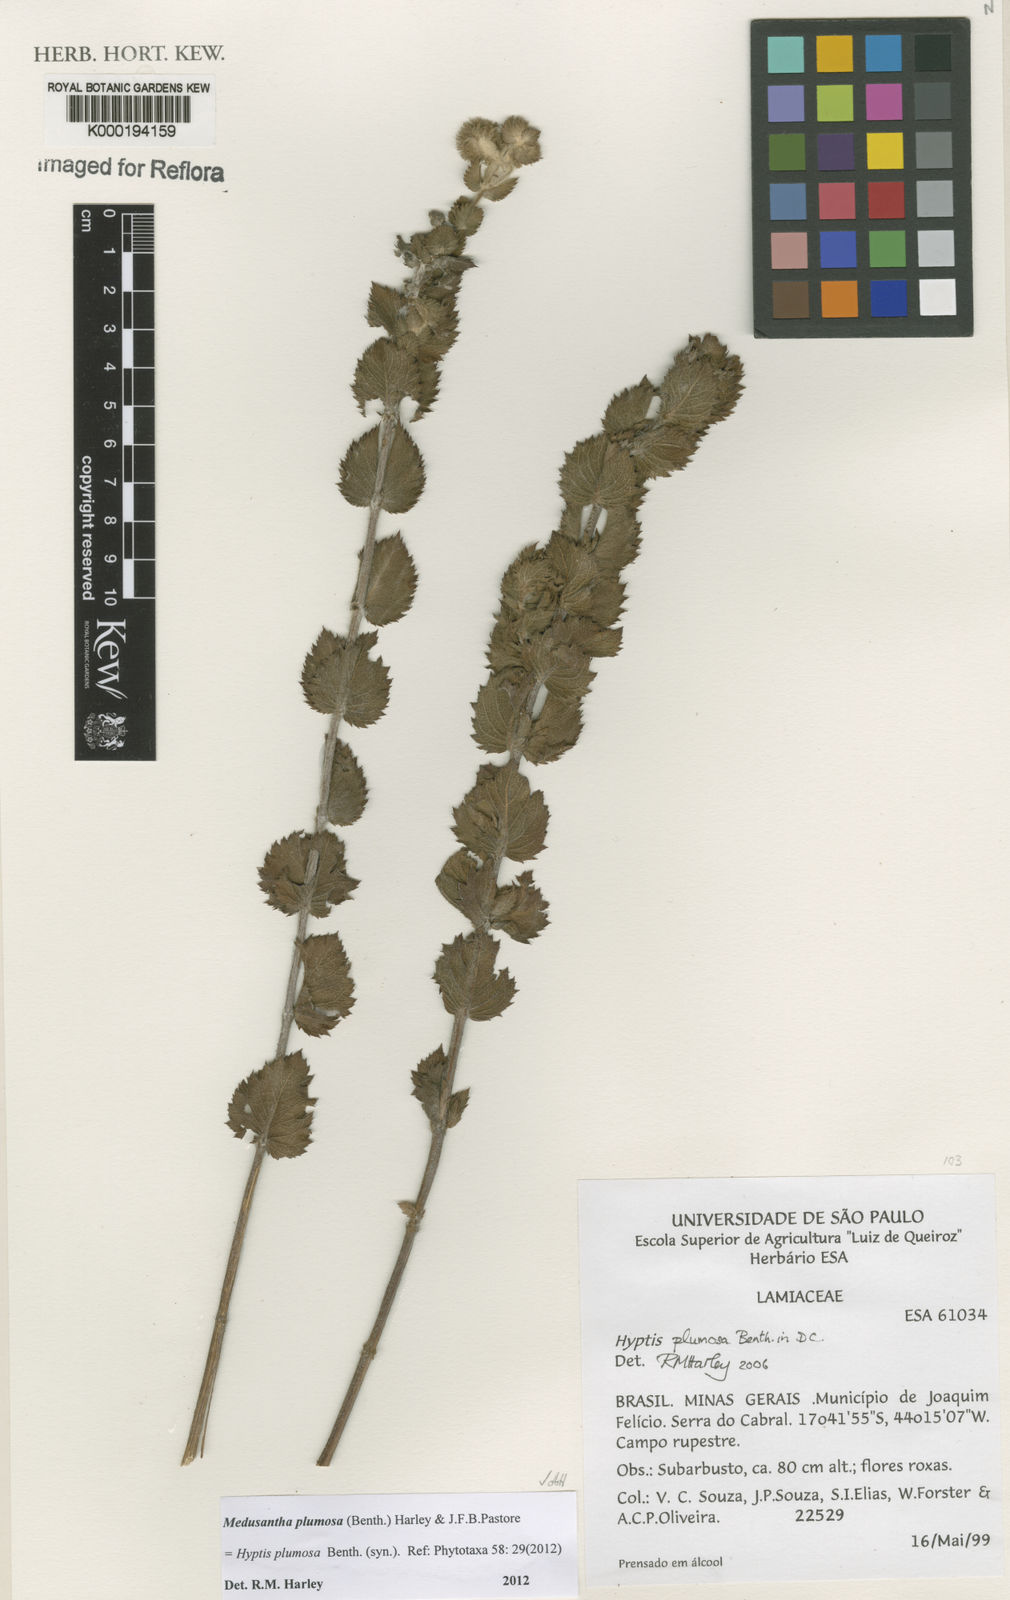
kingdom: Plantae
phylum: Tracheophyta
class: Magnoliopsida
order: Lamiales
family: Lamiaceae
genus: Medusantha
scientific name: Medusantha plumosa
